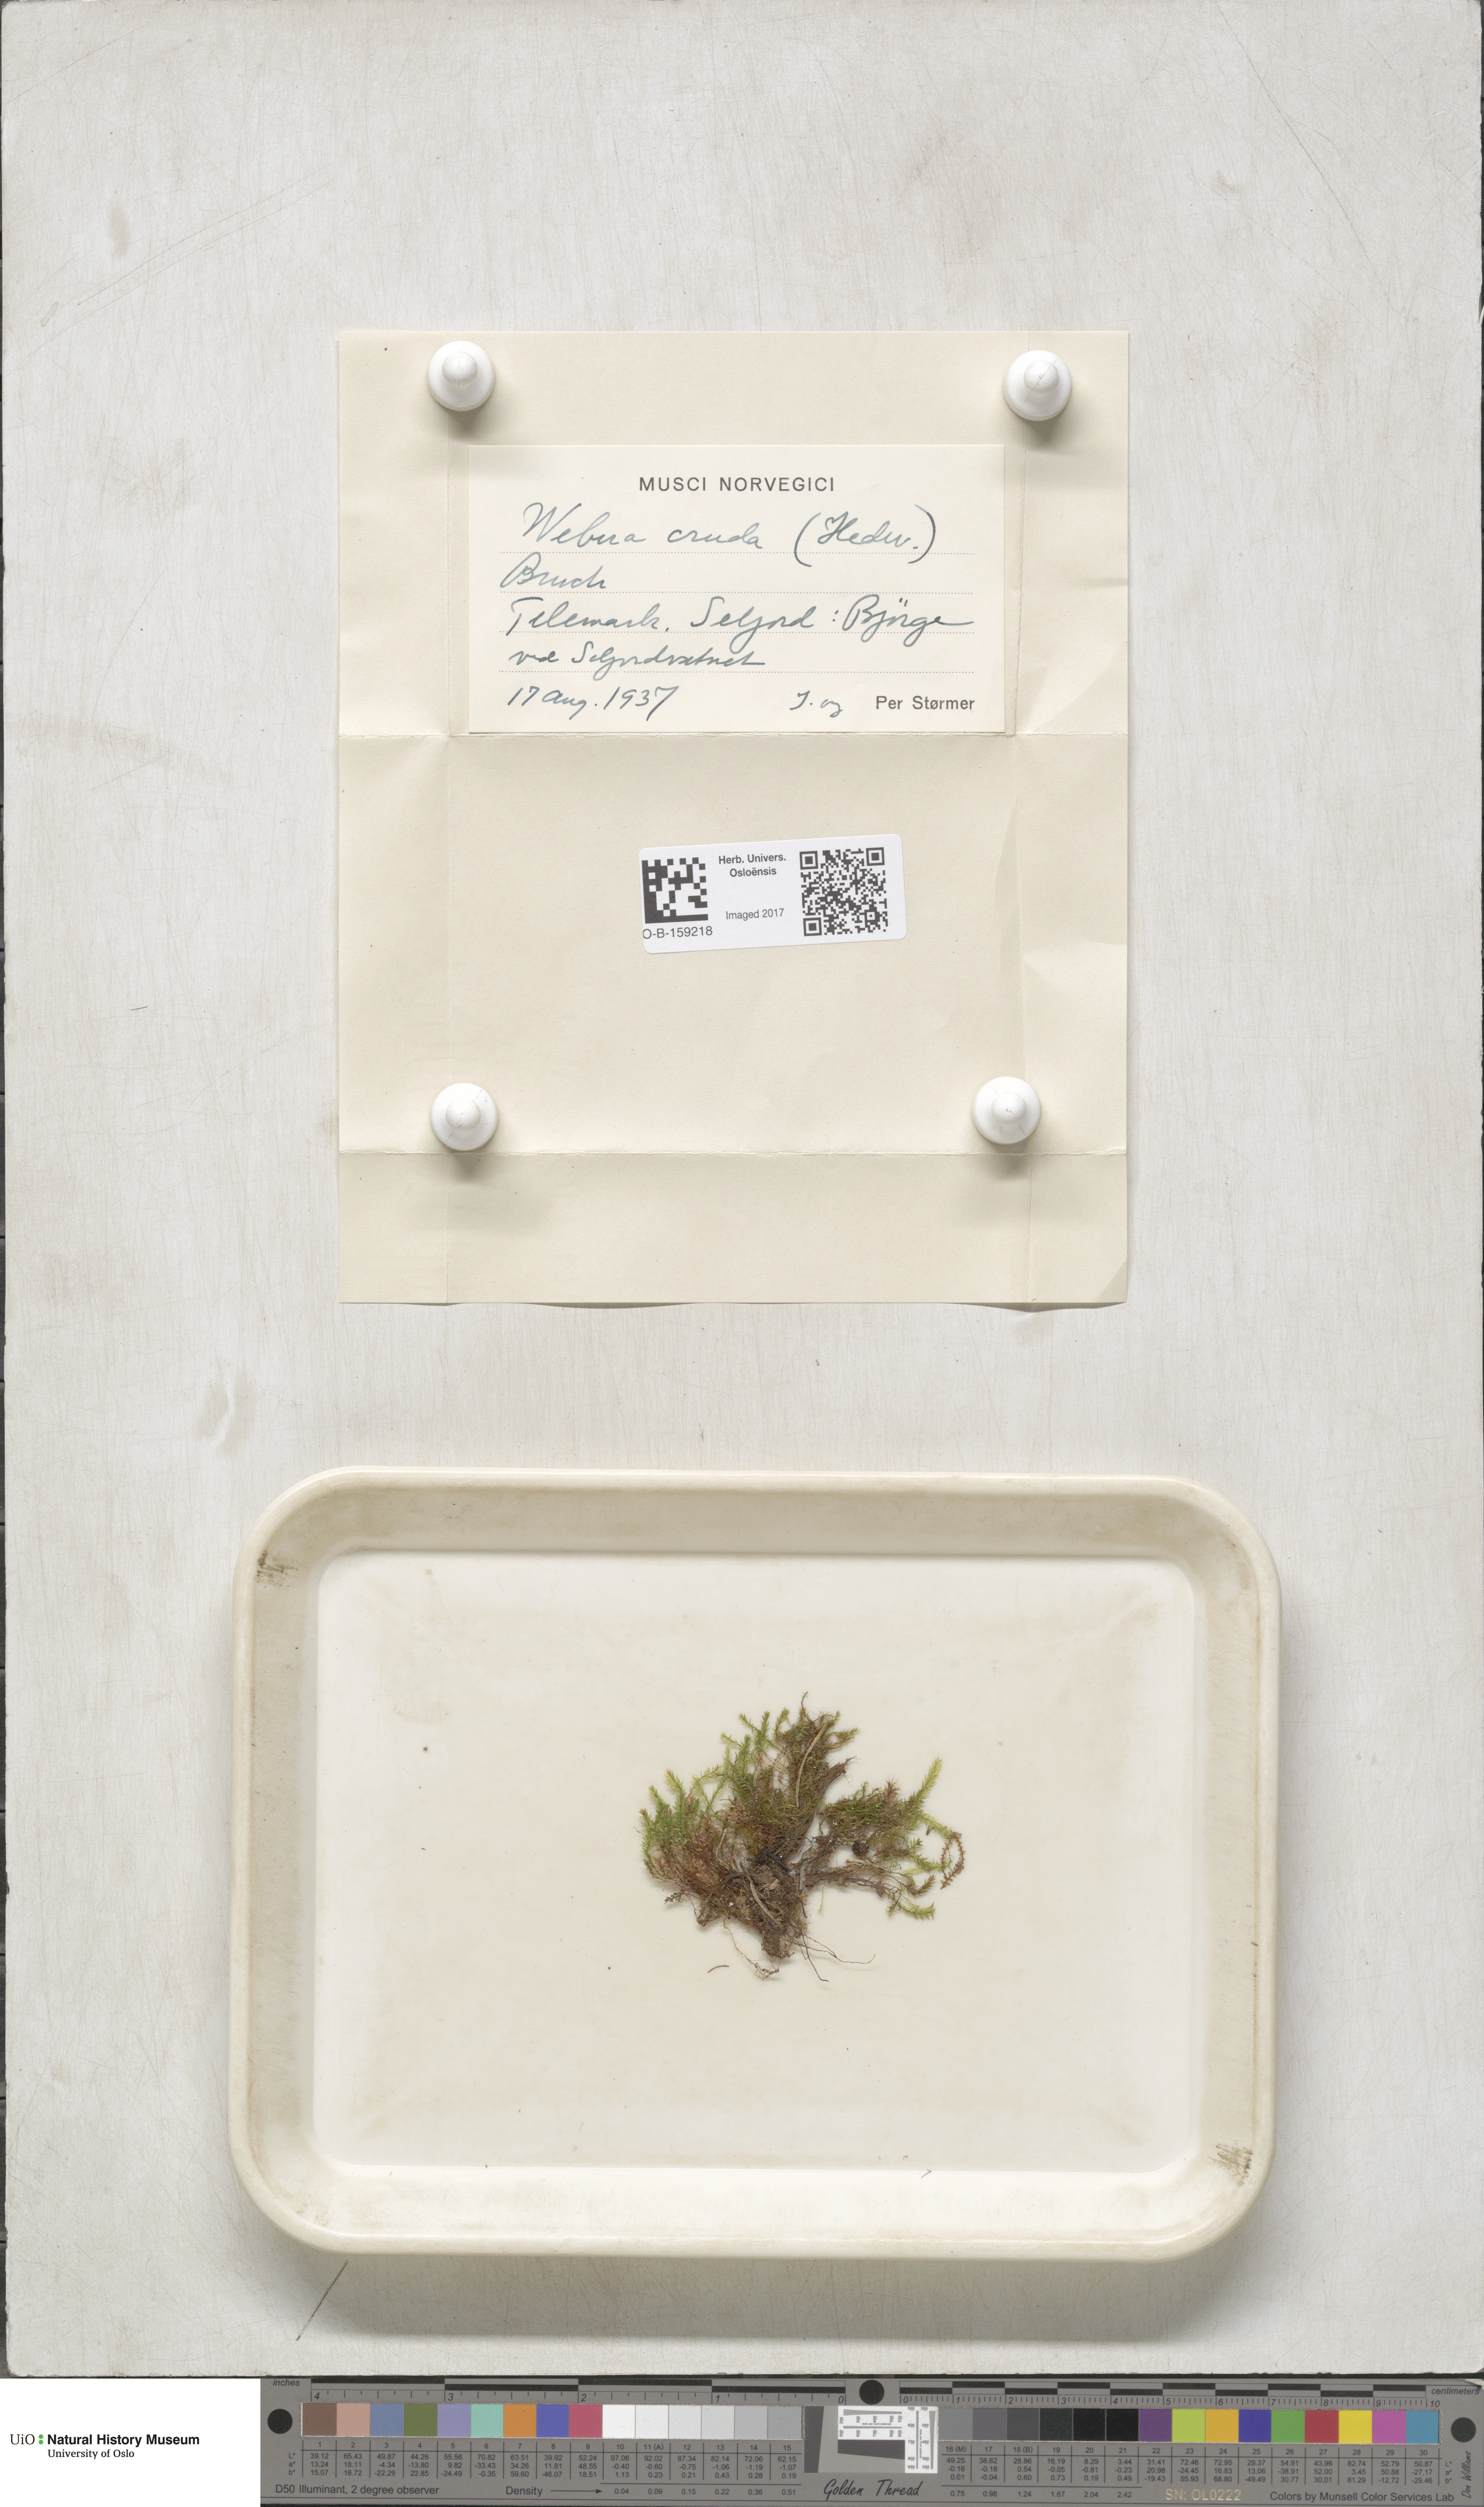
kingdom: Plantae
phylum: Bryophyta
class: Bryopsida
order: Bryales
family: Mniaceae
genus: Pohlia
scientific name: Pohlia cruda
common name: Opal nodding moss
